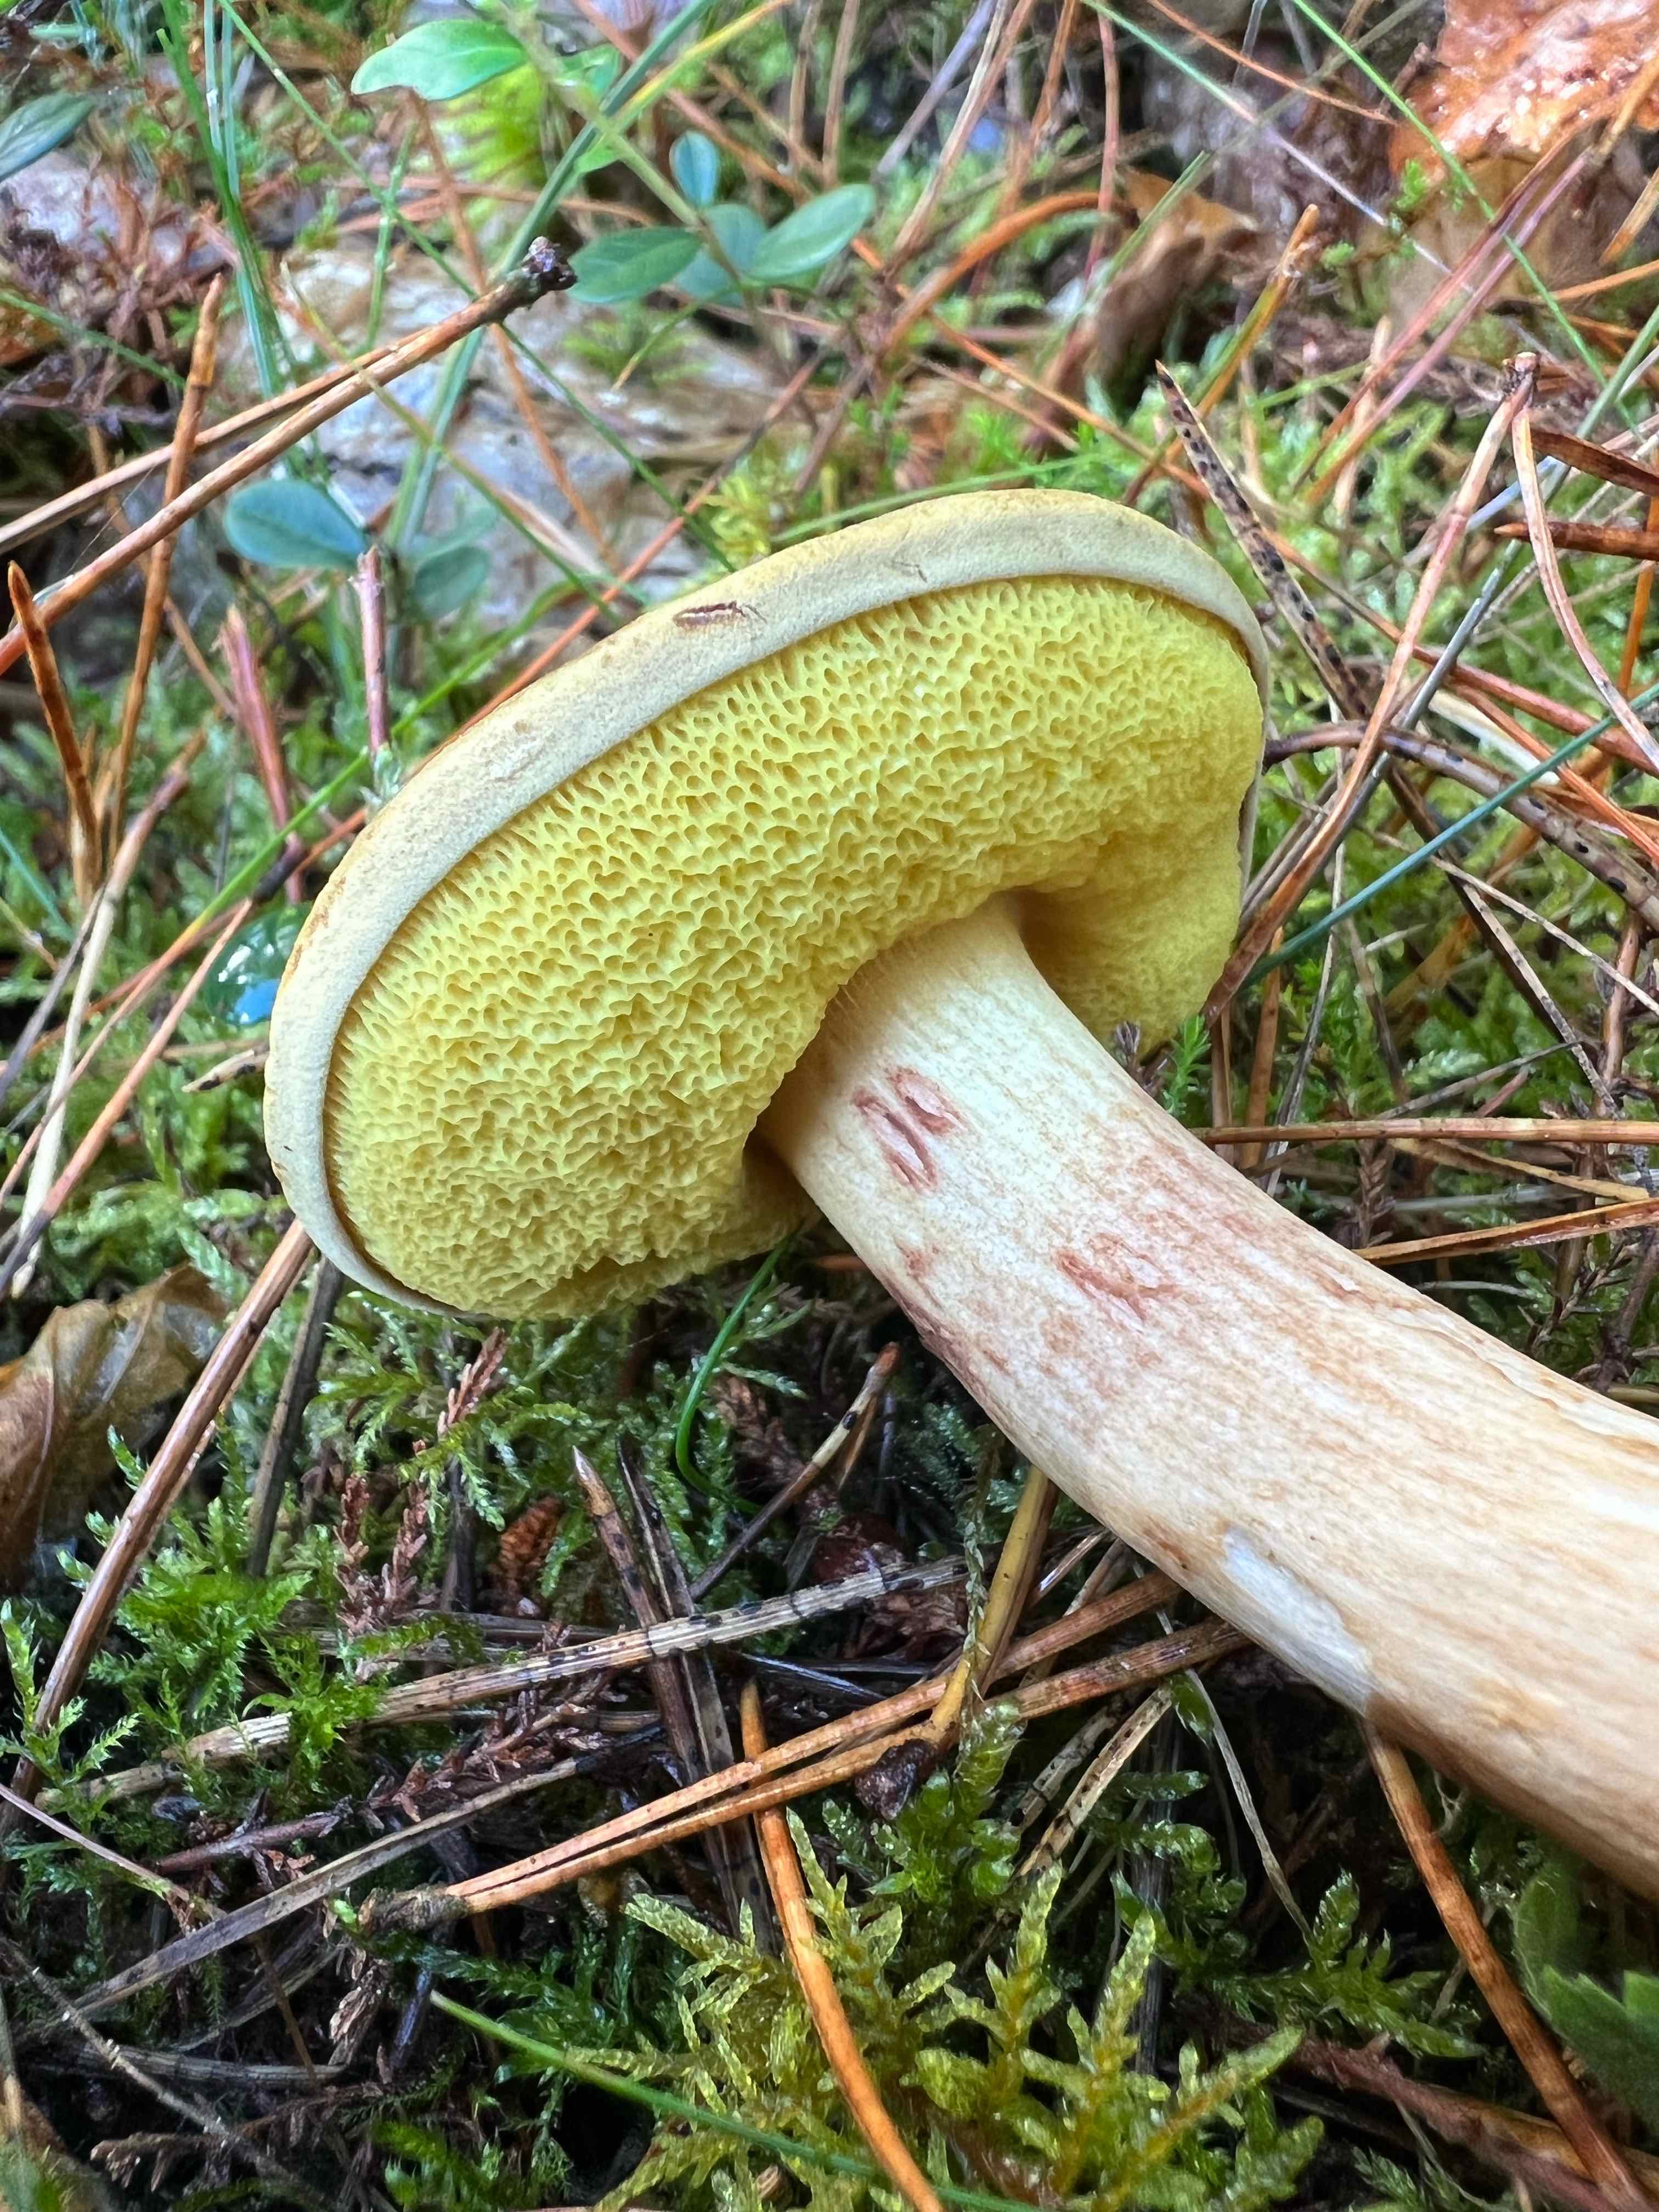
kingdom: Fungi
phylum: Basidiomycota
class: Agaricomycetes
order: Boletales
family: Boletaceae
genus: Xerocomus
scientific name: Xerocomus ferrugineus
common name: vaskeskinds-rørhat
